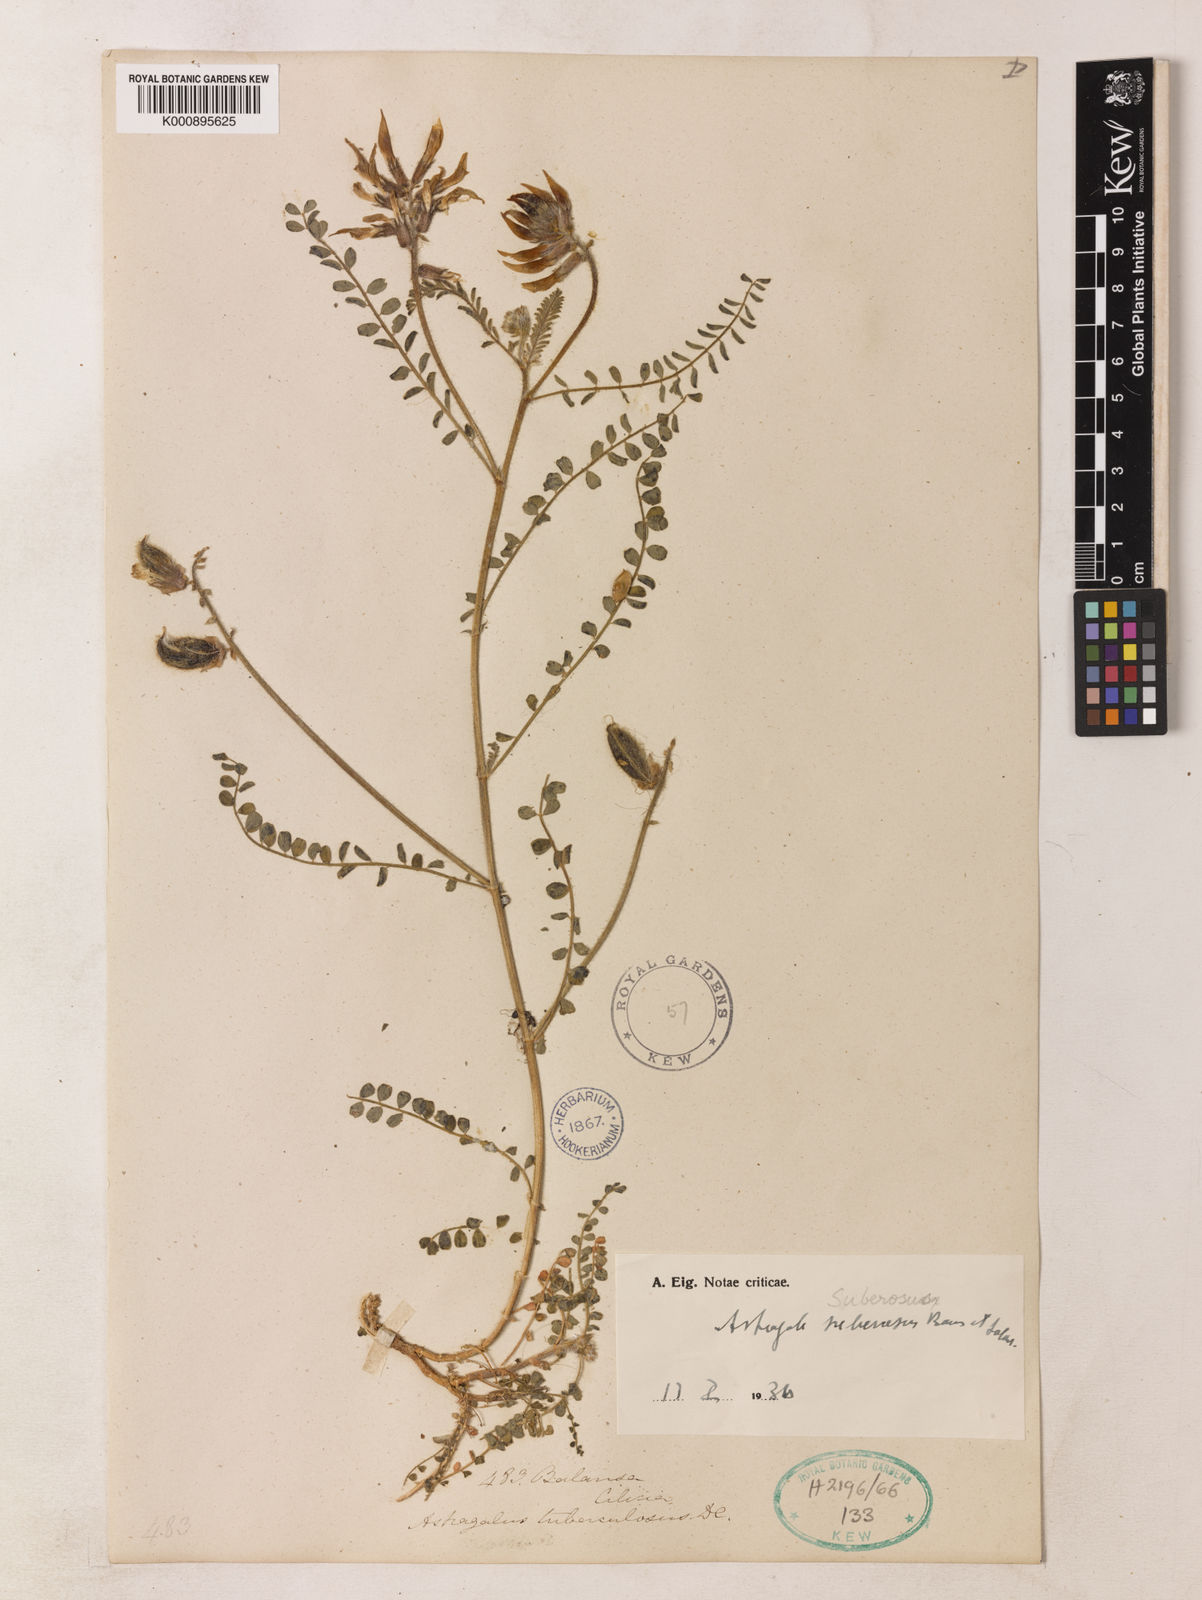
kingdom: Plantae
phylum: Tracheophyta
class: Magnoliopsida
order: Fabales
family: Fabaceae
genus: Astragalus
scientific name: Astragalus suberosus
